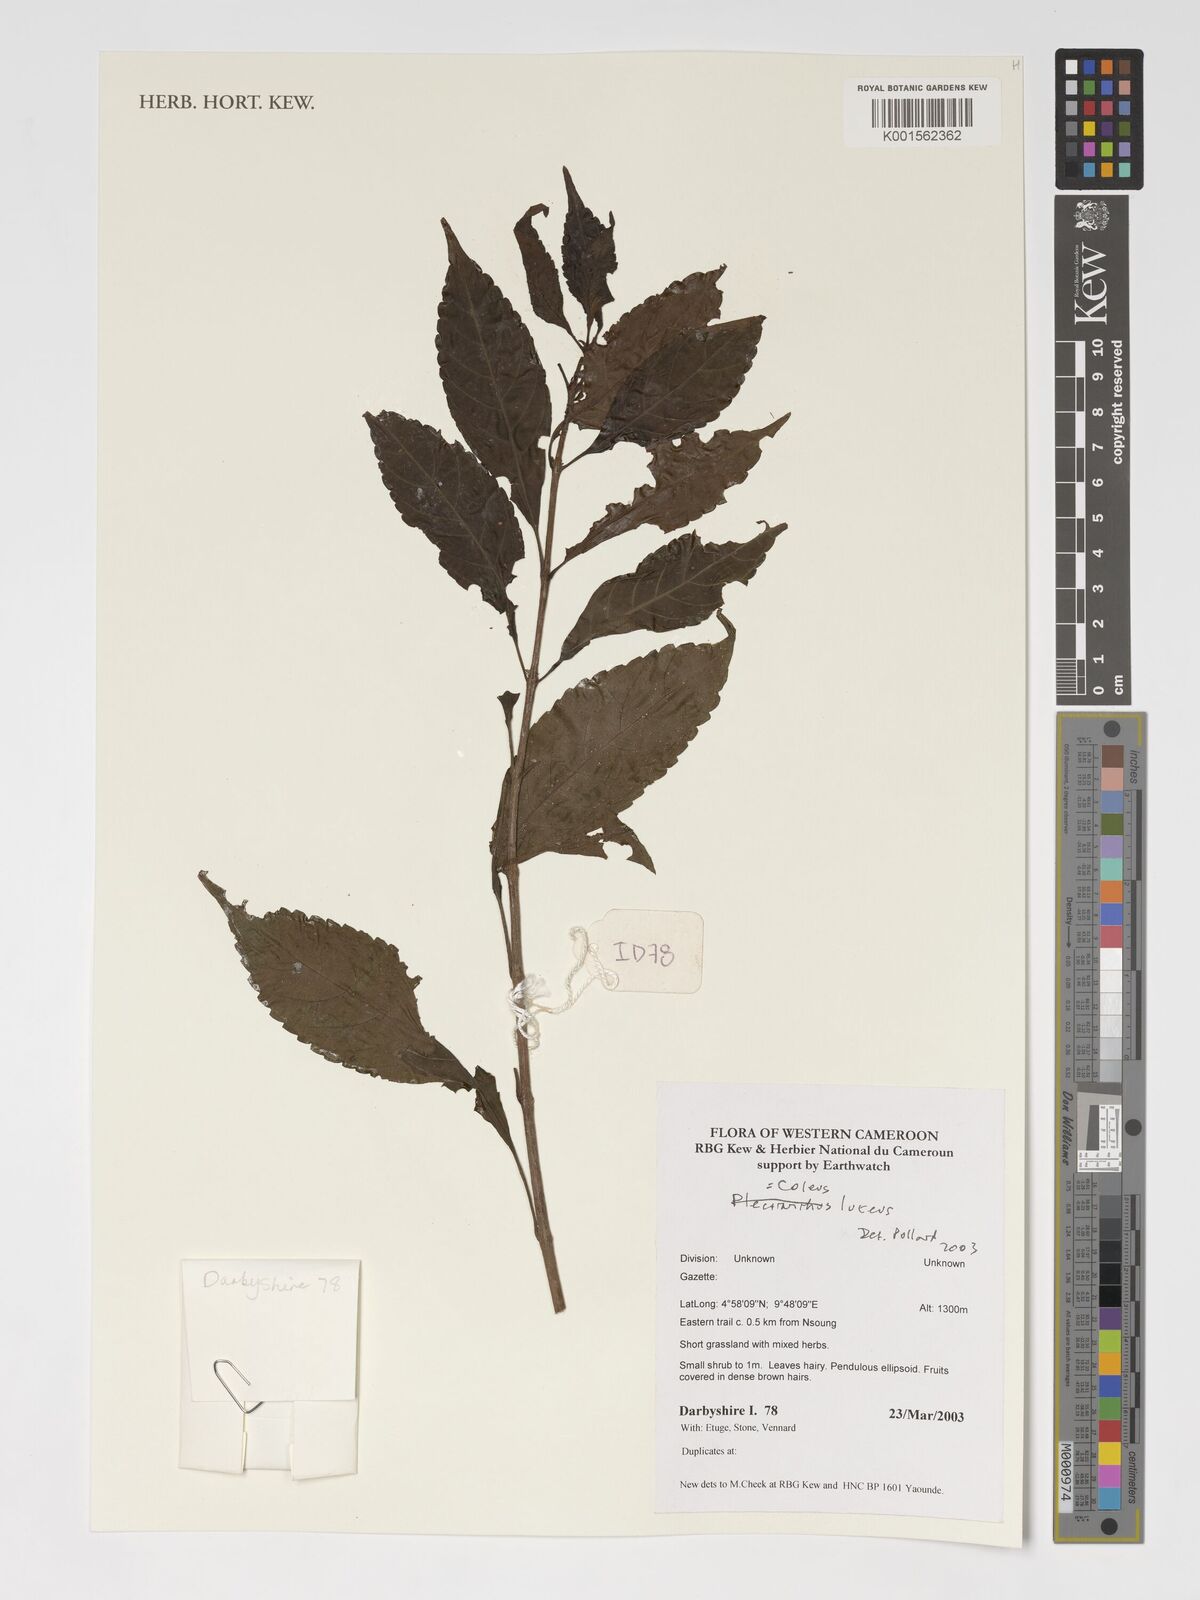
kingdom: Plantae
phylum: Tracheophyta
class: Magnoliopsida
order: Lamiales
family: Lamiaceae
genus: Coleus
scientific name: Coleus melleri
